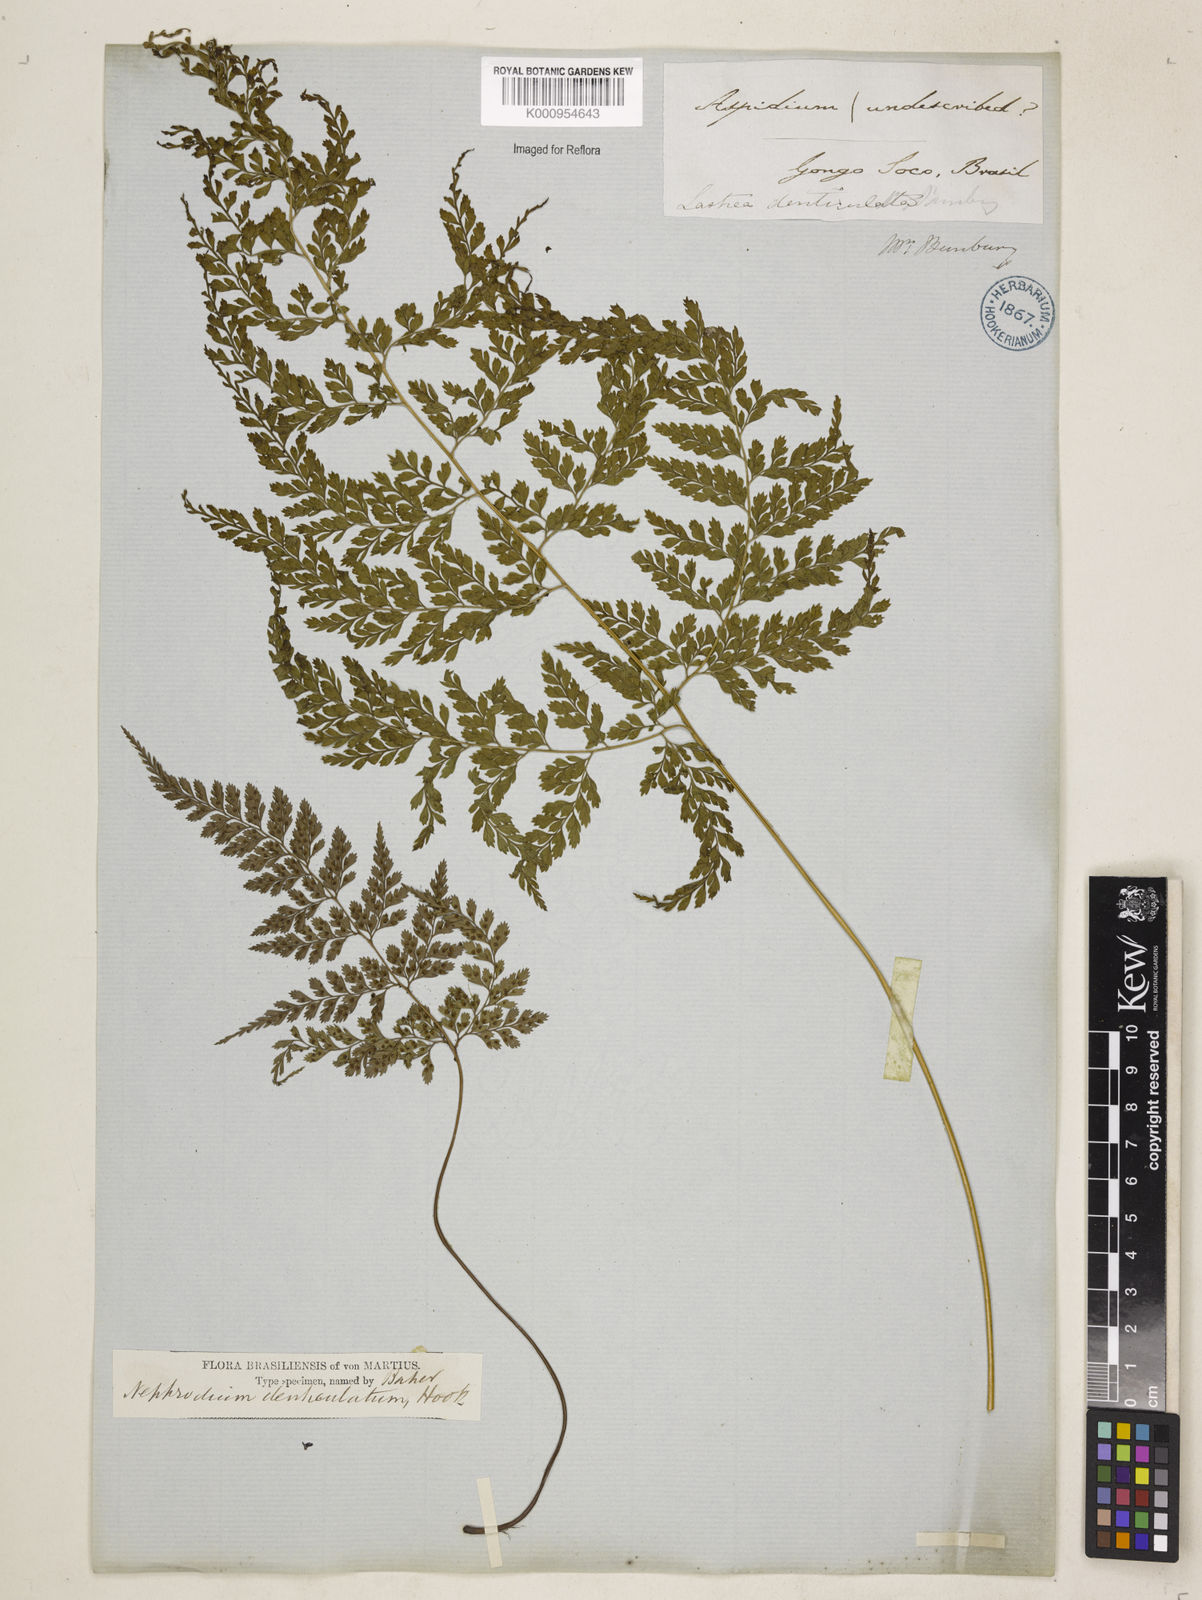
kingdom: Plantae
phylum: Tracheophyta
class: Polypodiopsida
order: Polypodiales
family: Dryopteridaceae
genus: Arachniodes
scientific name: Arachniodes denticulata
